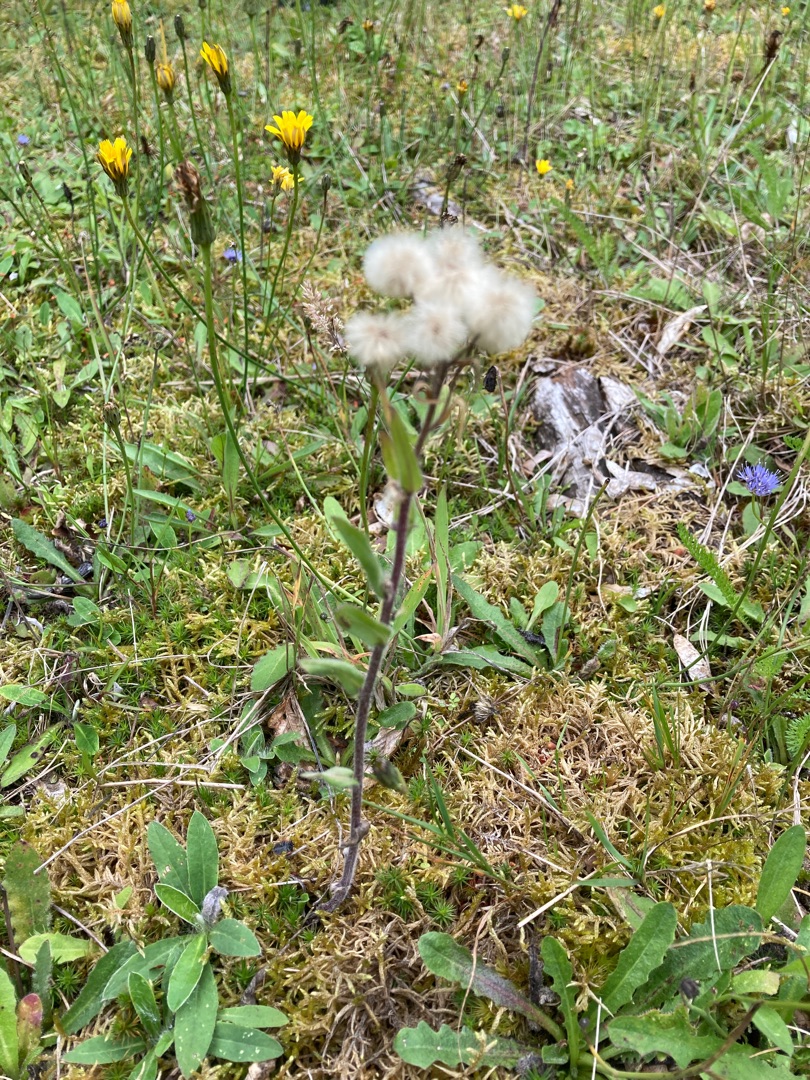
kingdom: Plantae
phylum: Tracheophyta
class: Magnoliopsida
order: Asterales
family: Asteraceae
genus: Erigeron
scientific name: Erigeron acris
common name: Bitter bakkestjerne
